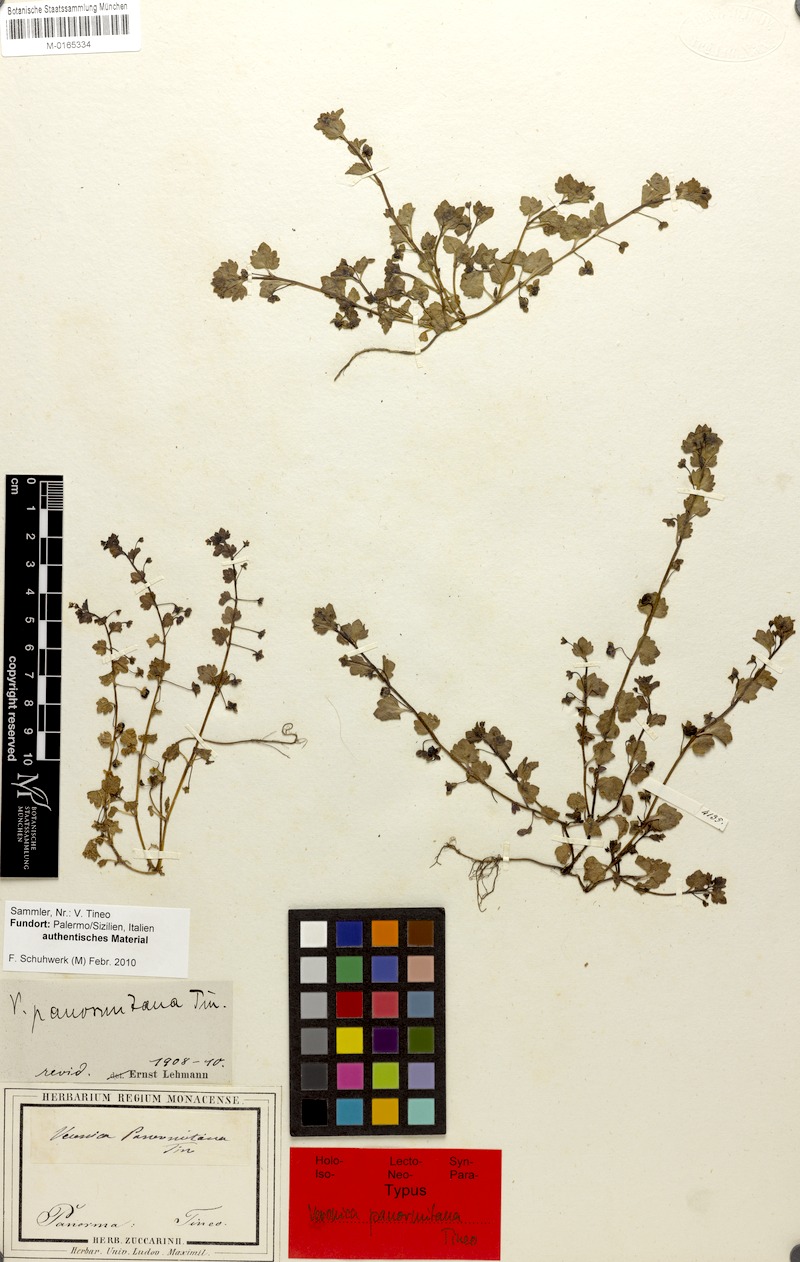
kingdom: Plantae
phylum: Tracheophyta
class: Magnoliopsida
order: Lamiales
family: Plantaginaceae
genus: Veronica
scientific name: Veronica panormitana
